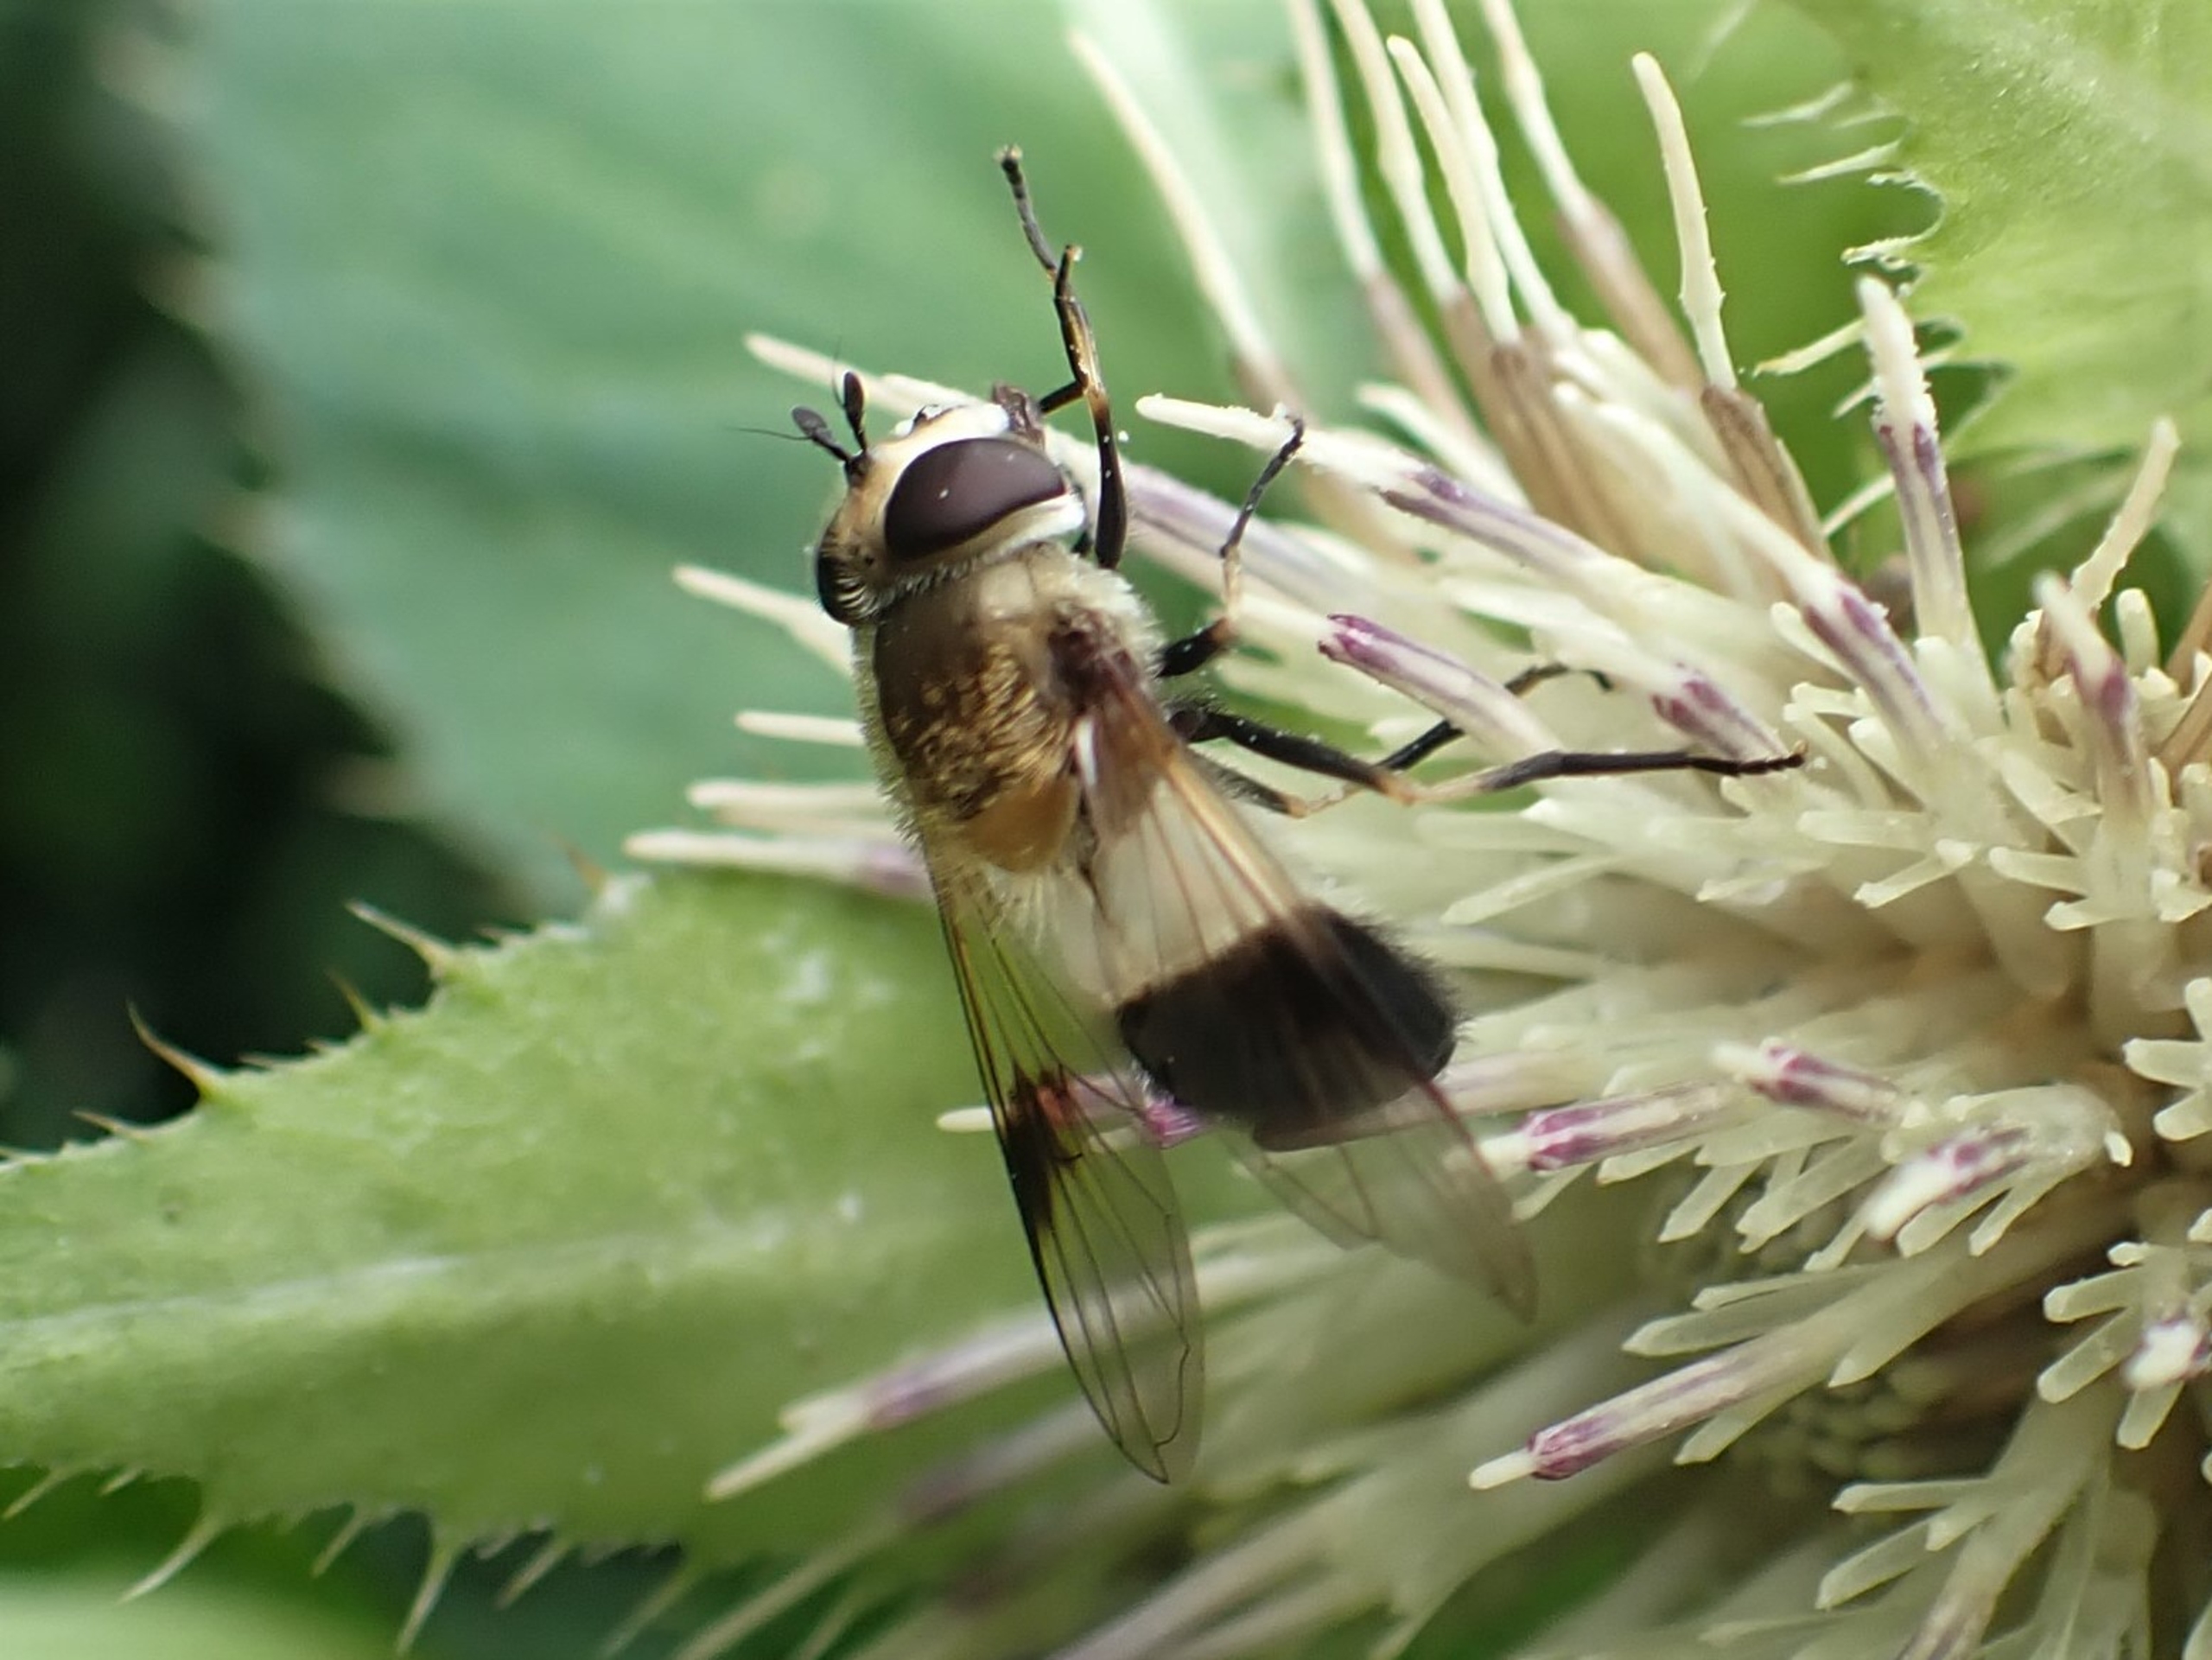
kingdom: Animalia
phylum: Arthropoda
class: Insecta
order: Diptera
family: Syrphidae
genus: Leucozona
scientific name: Leucozona inopinata
